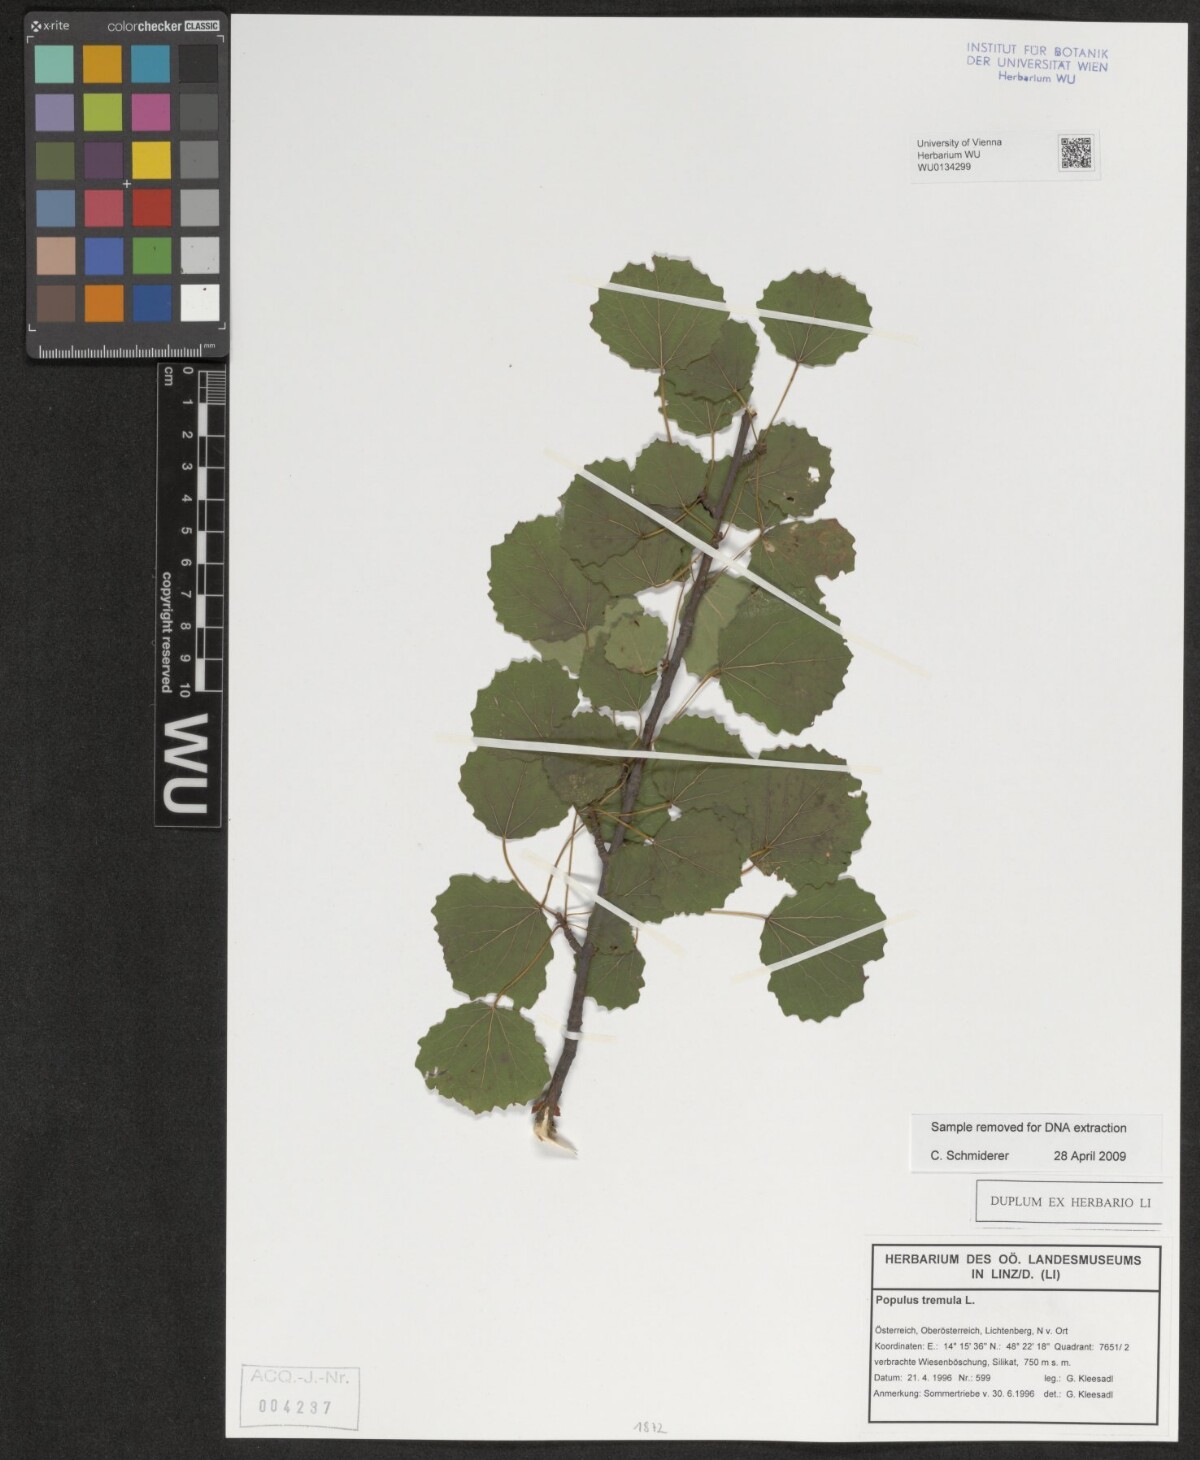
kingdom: Plantae
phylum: Tracheophyta
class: Magnoliopsida
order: Malpighiales
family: Salicaceae
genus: Populus
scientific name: Populus tremula
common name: European aspen
